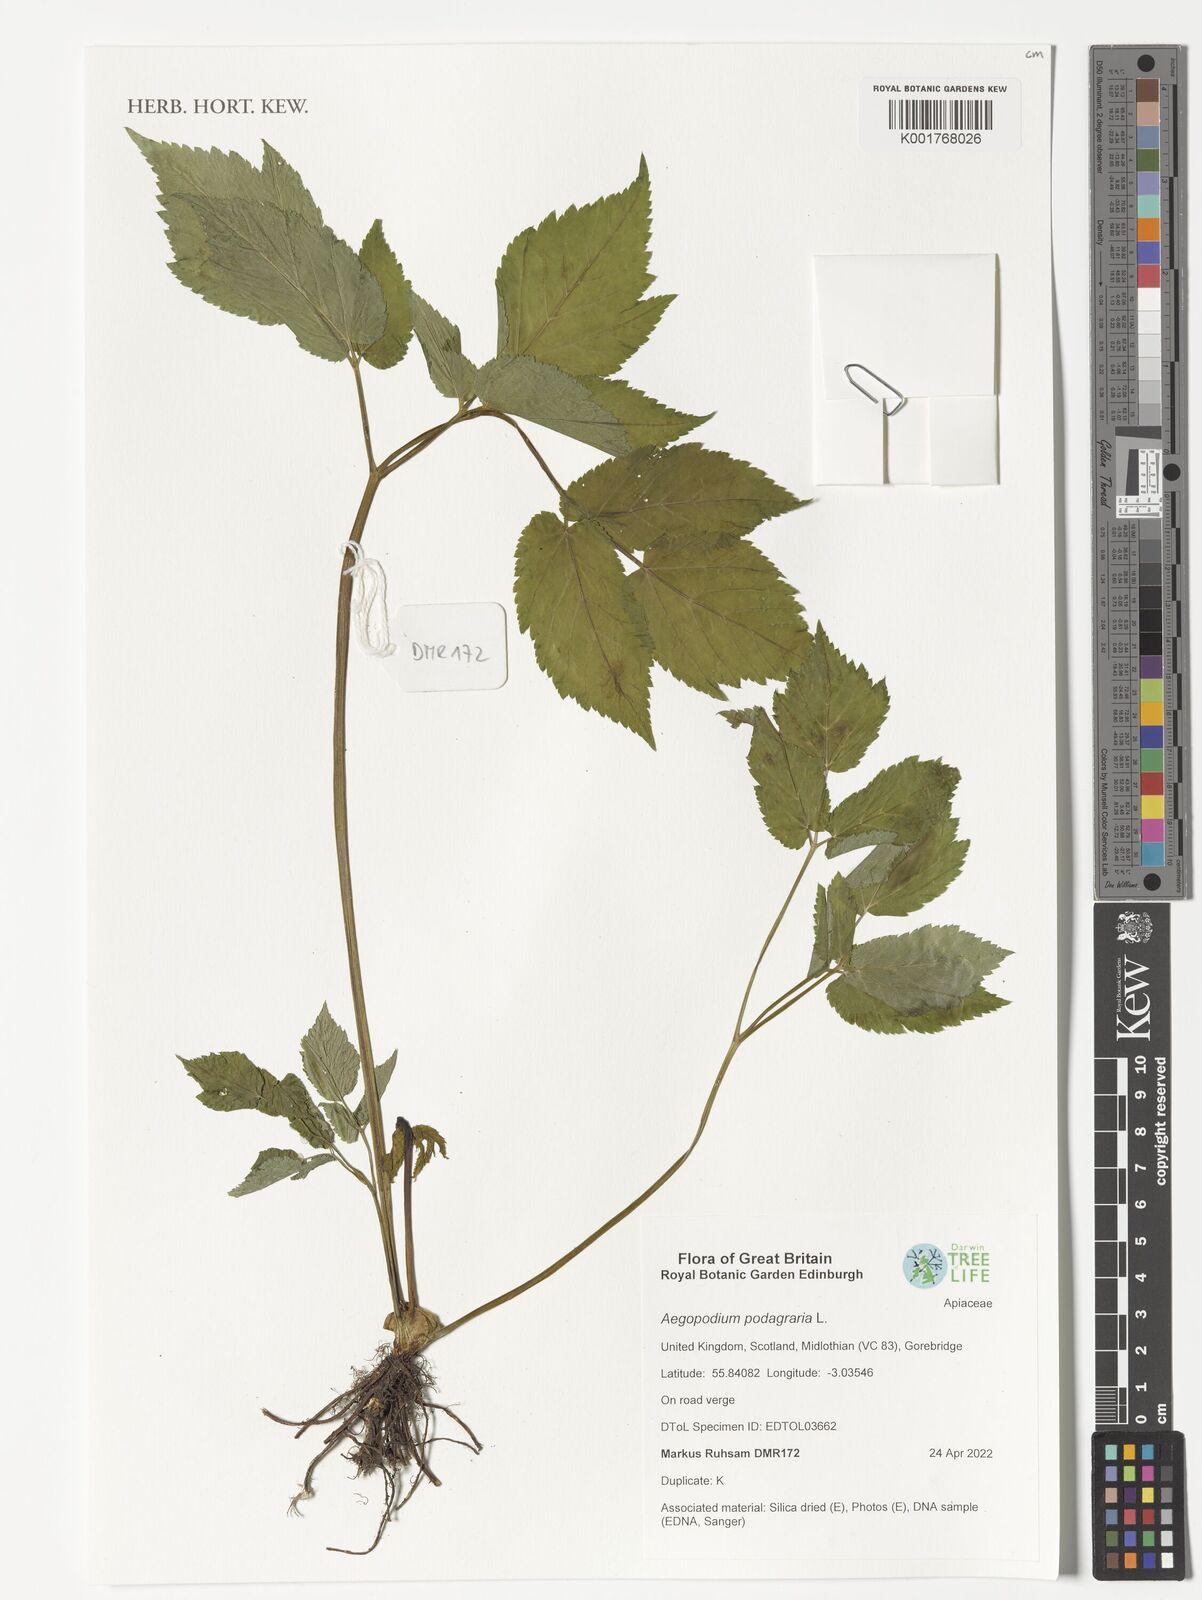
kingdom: Plantae
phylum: Tracheophyta
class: Magnoliopsida
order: Apiales
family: Apiaceae
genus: Aegopodium
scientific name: Aegopodium podagraria
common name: Ground-elder
